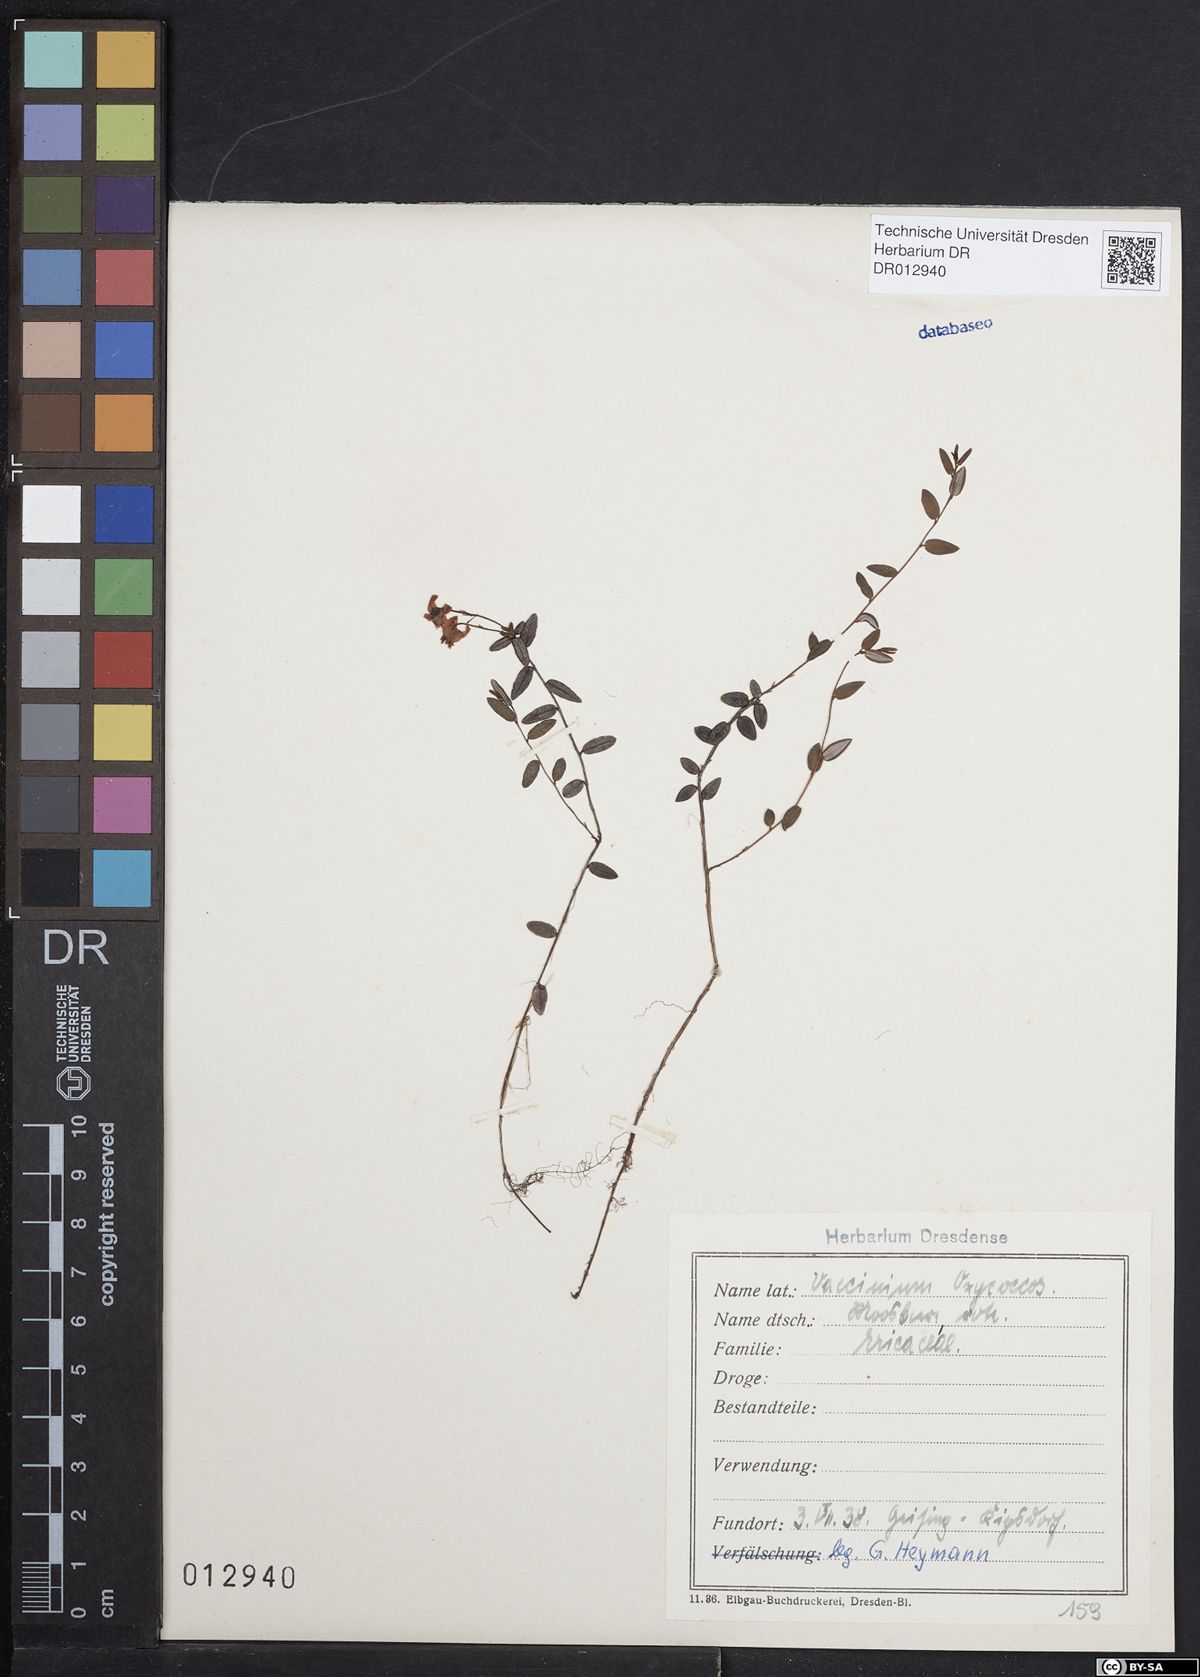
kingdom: Plantae
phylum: Tracheophyta
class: Magnoliopsida
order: Ericales
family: Ericaceae
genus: Vaccinium
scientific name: Vaccinium oxycoccos
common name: Cranberry
